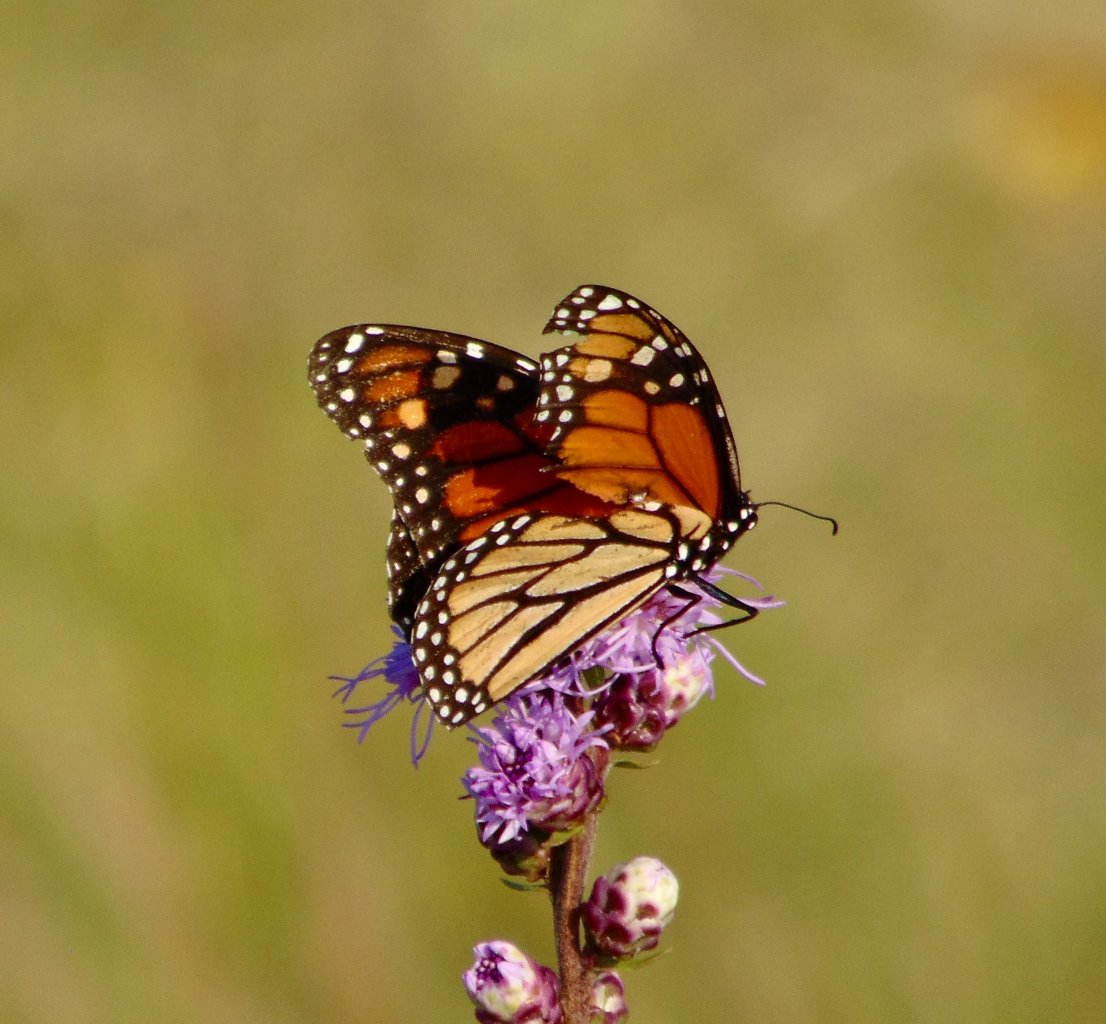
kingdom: Animalia
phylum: Arthropoda
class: Insecta
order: Lepidoptera
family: Nymphalidae
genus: Danaus
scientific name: Danaus plexippus
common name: Monarch
